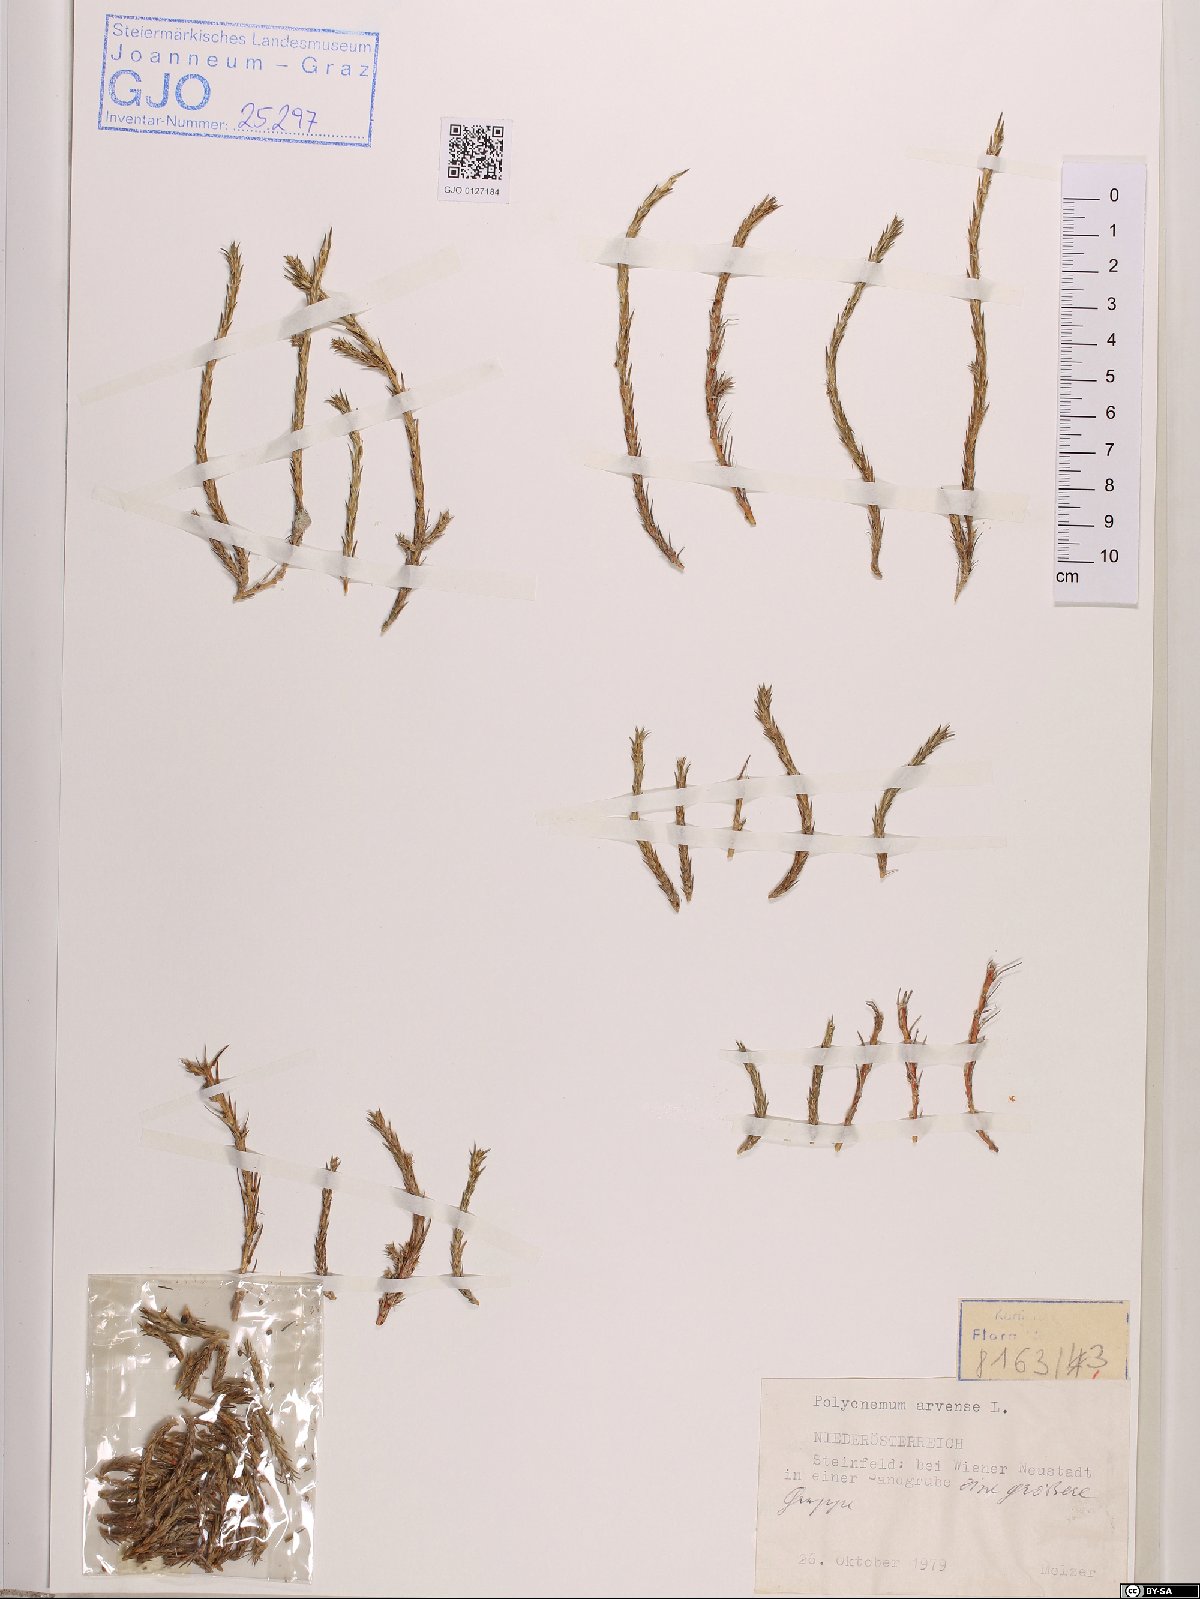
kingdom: Plantae
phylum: Tracheophyta
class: Magnoliopsida
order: Caryophyllales
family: Amaranthaceae
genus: Polycnemum
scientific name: Polycnemum arvense
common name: Soft needleleaf
